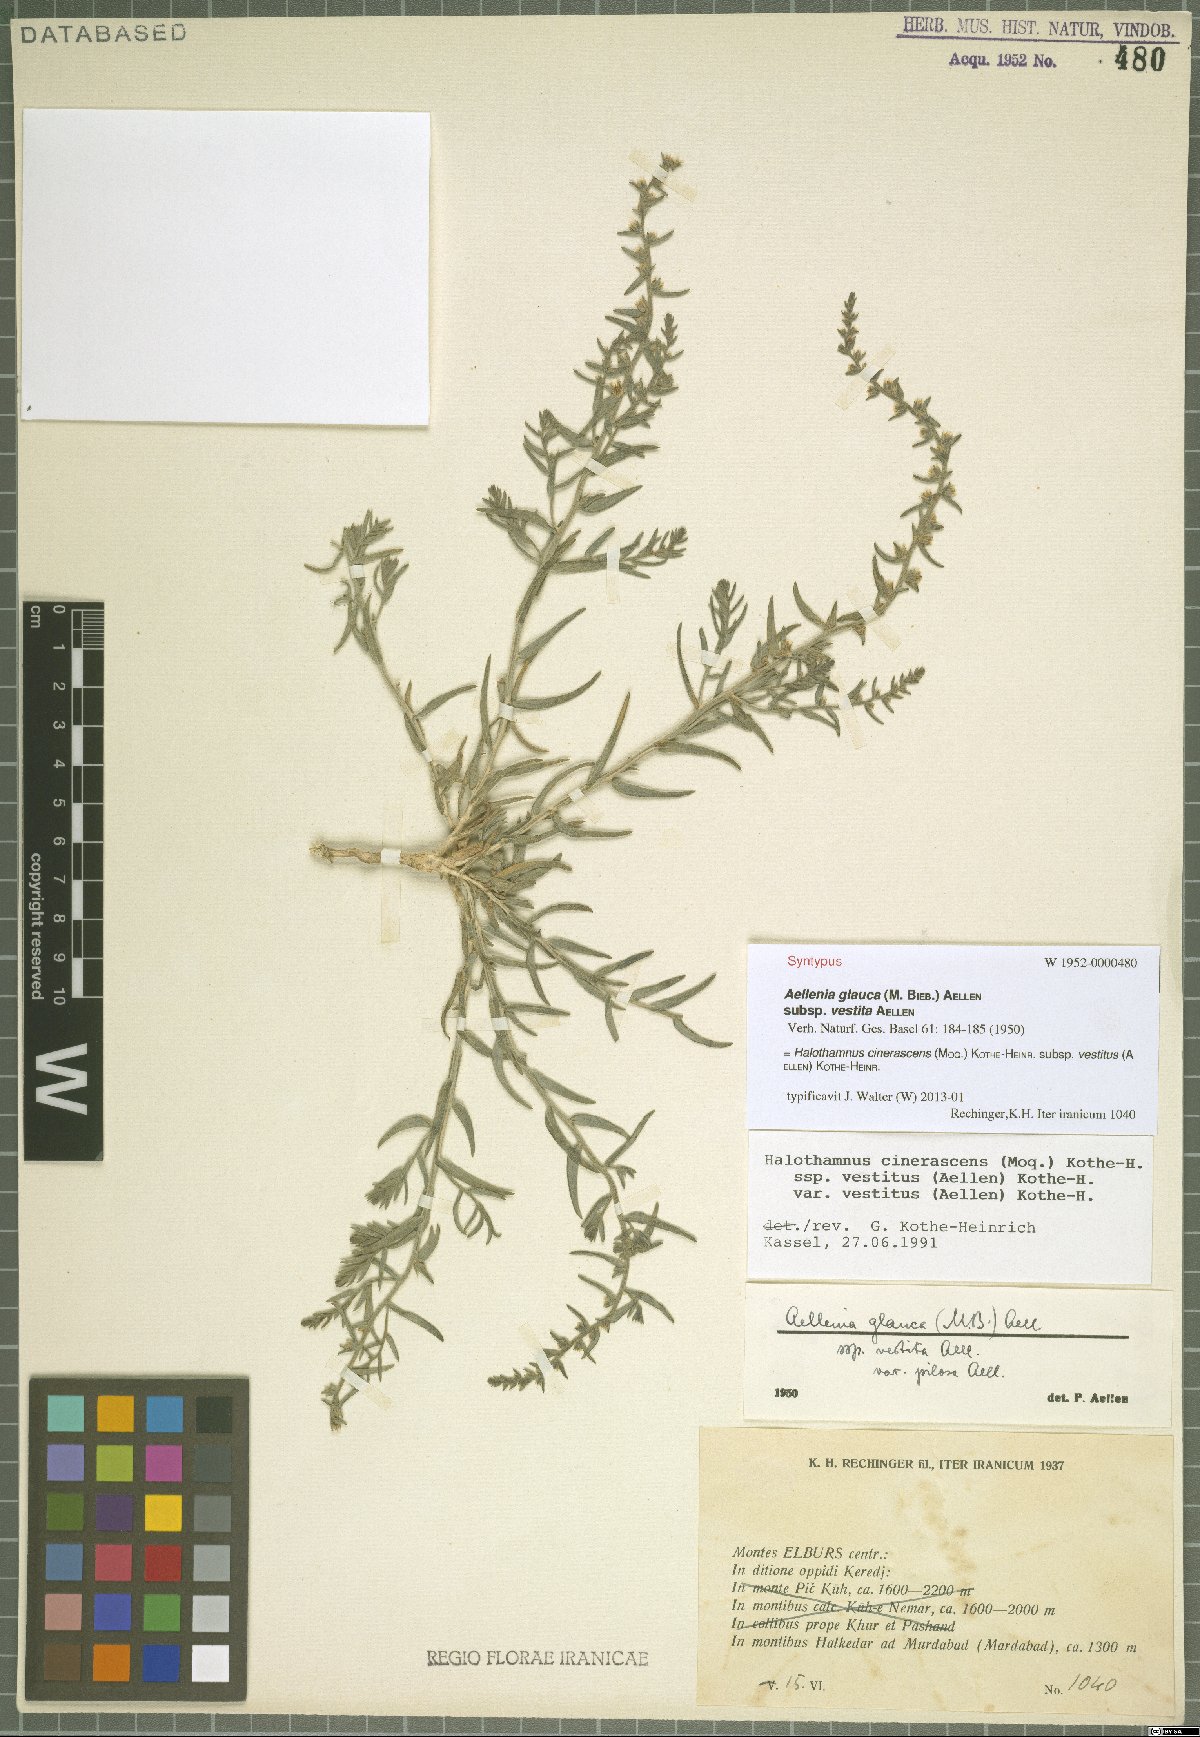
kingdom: Plantae
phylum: Tracheophyta
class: Magnoliopsida
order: Caryophyllales
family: Amaranthaceae
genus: Halothamnus
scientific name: Halothamnus cinerascens
